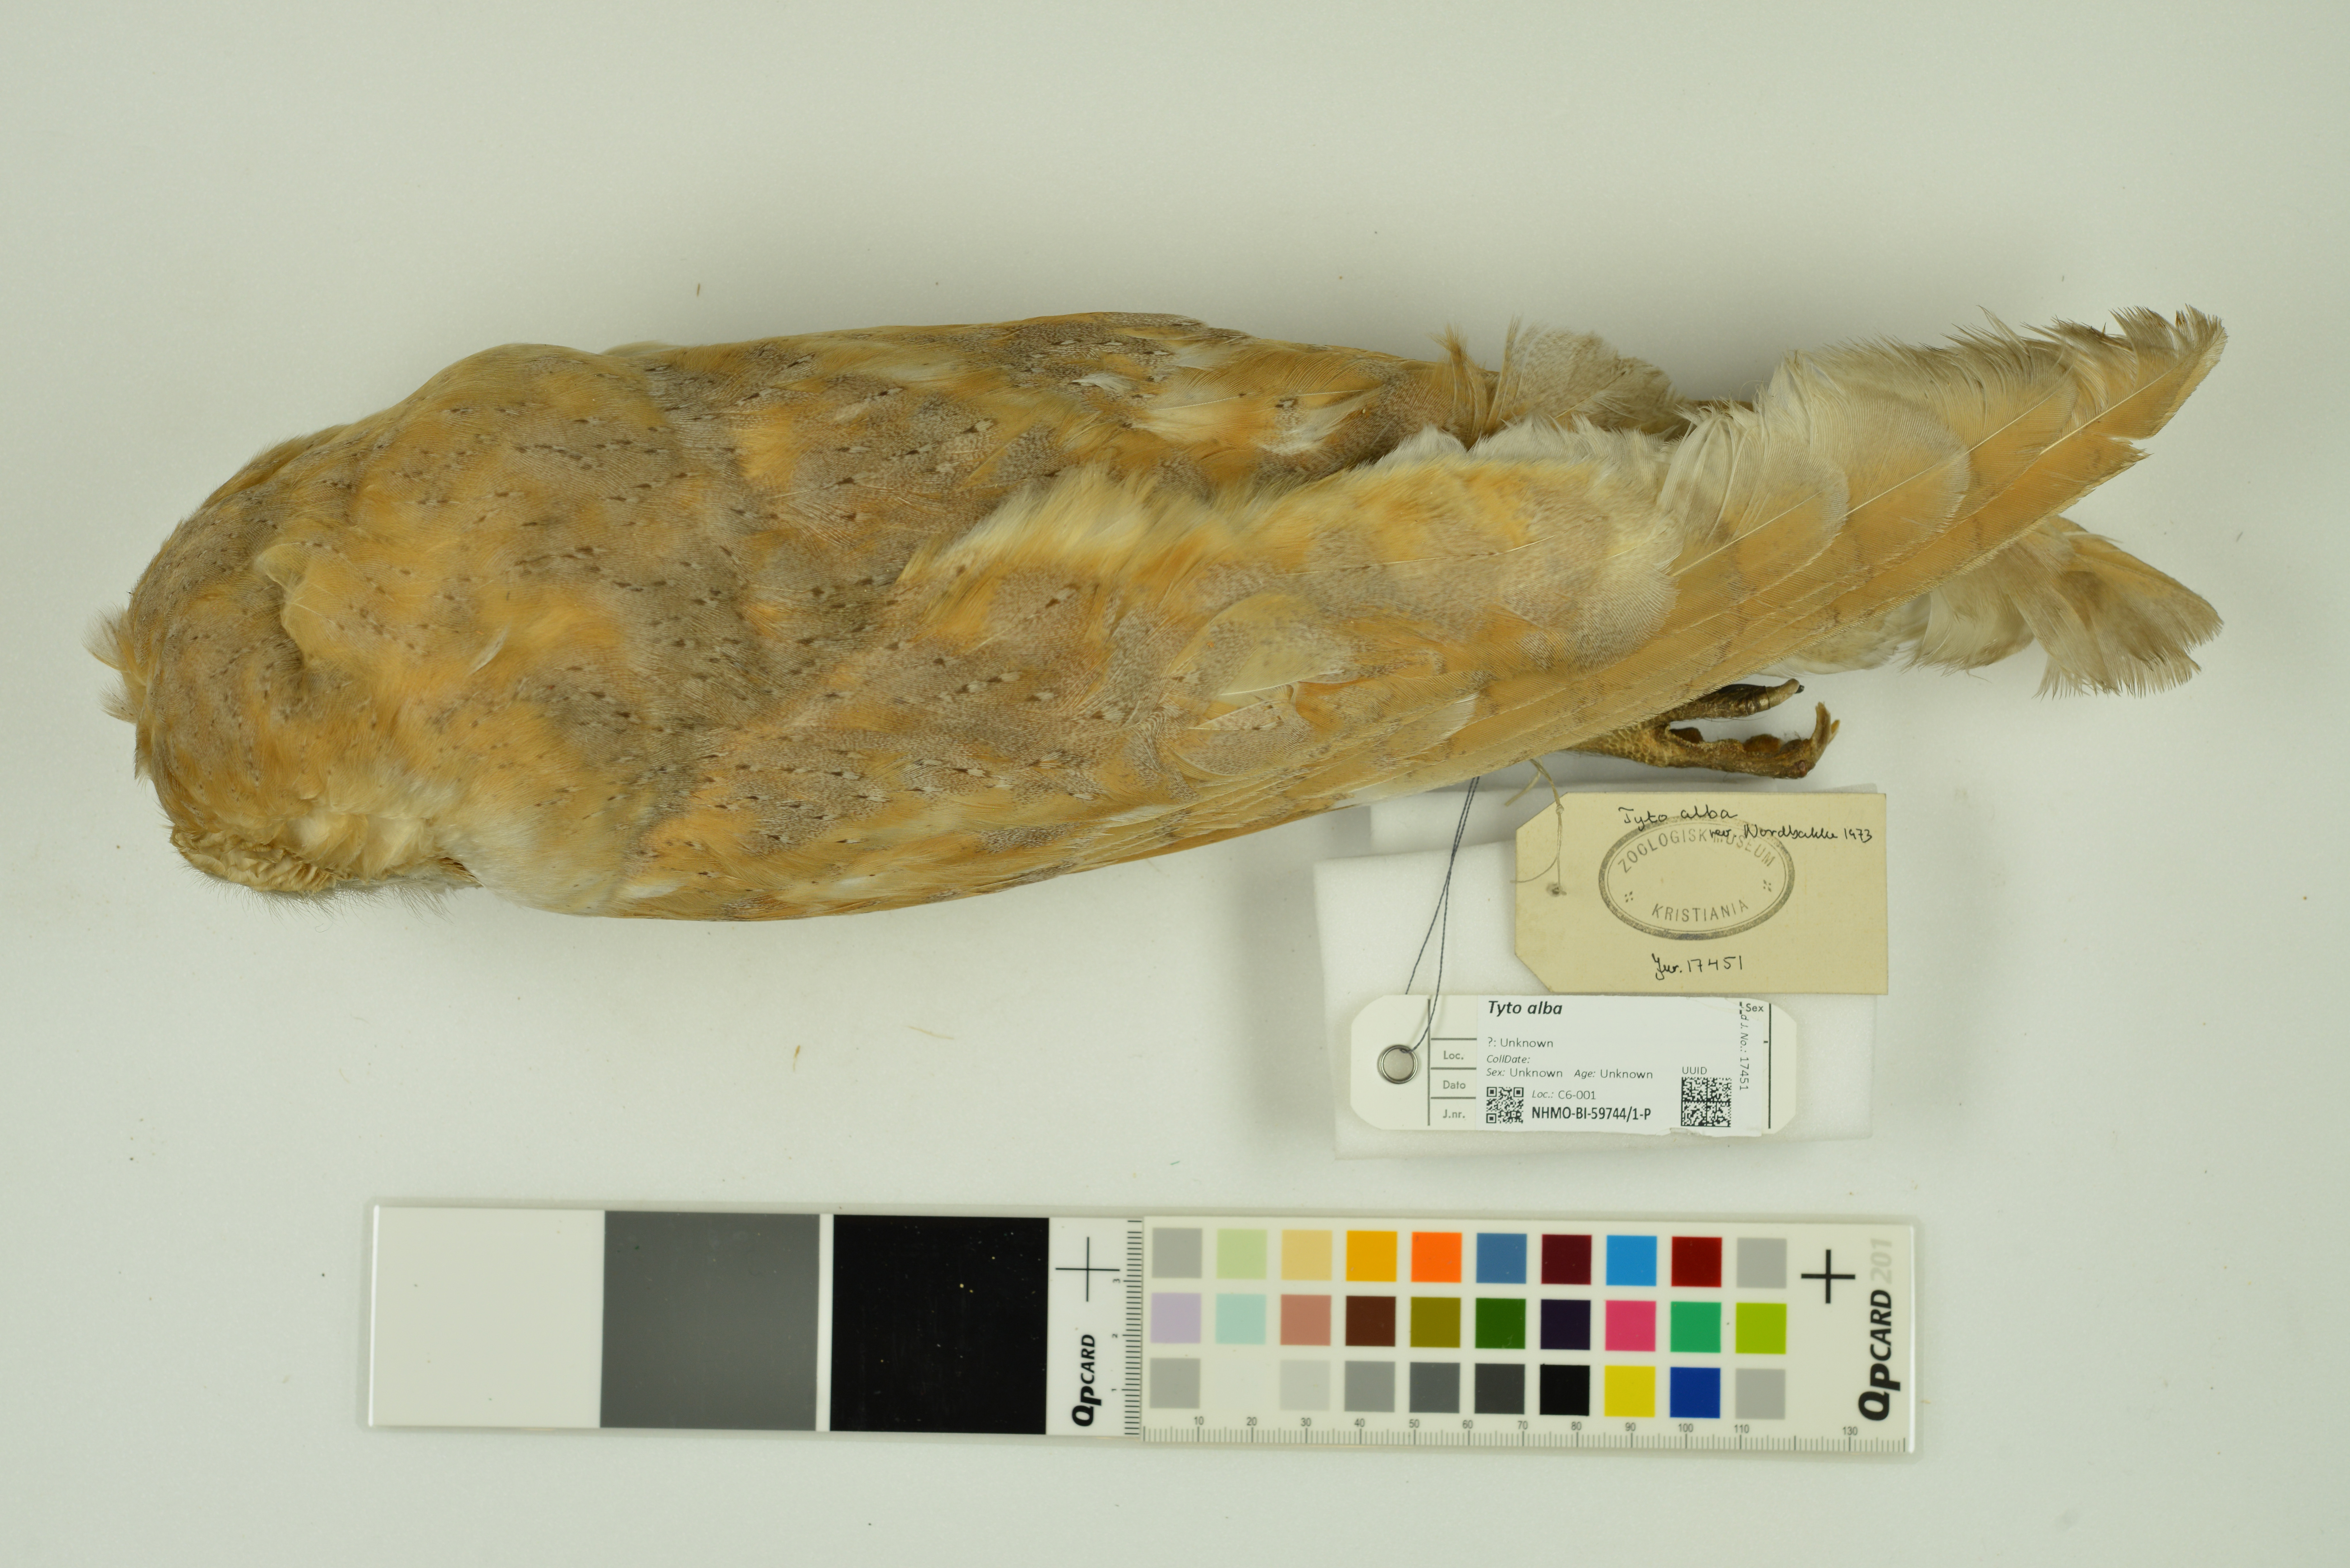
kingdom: Animalia
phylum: Chordata
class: Aves
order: Strigiformes
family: Tytonidae
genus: Tyto
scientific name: Tyto alba
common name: Barn owl
